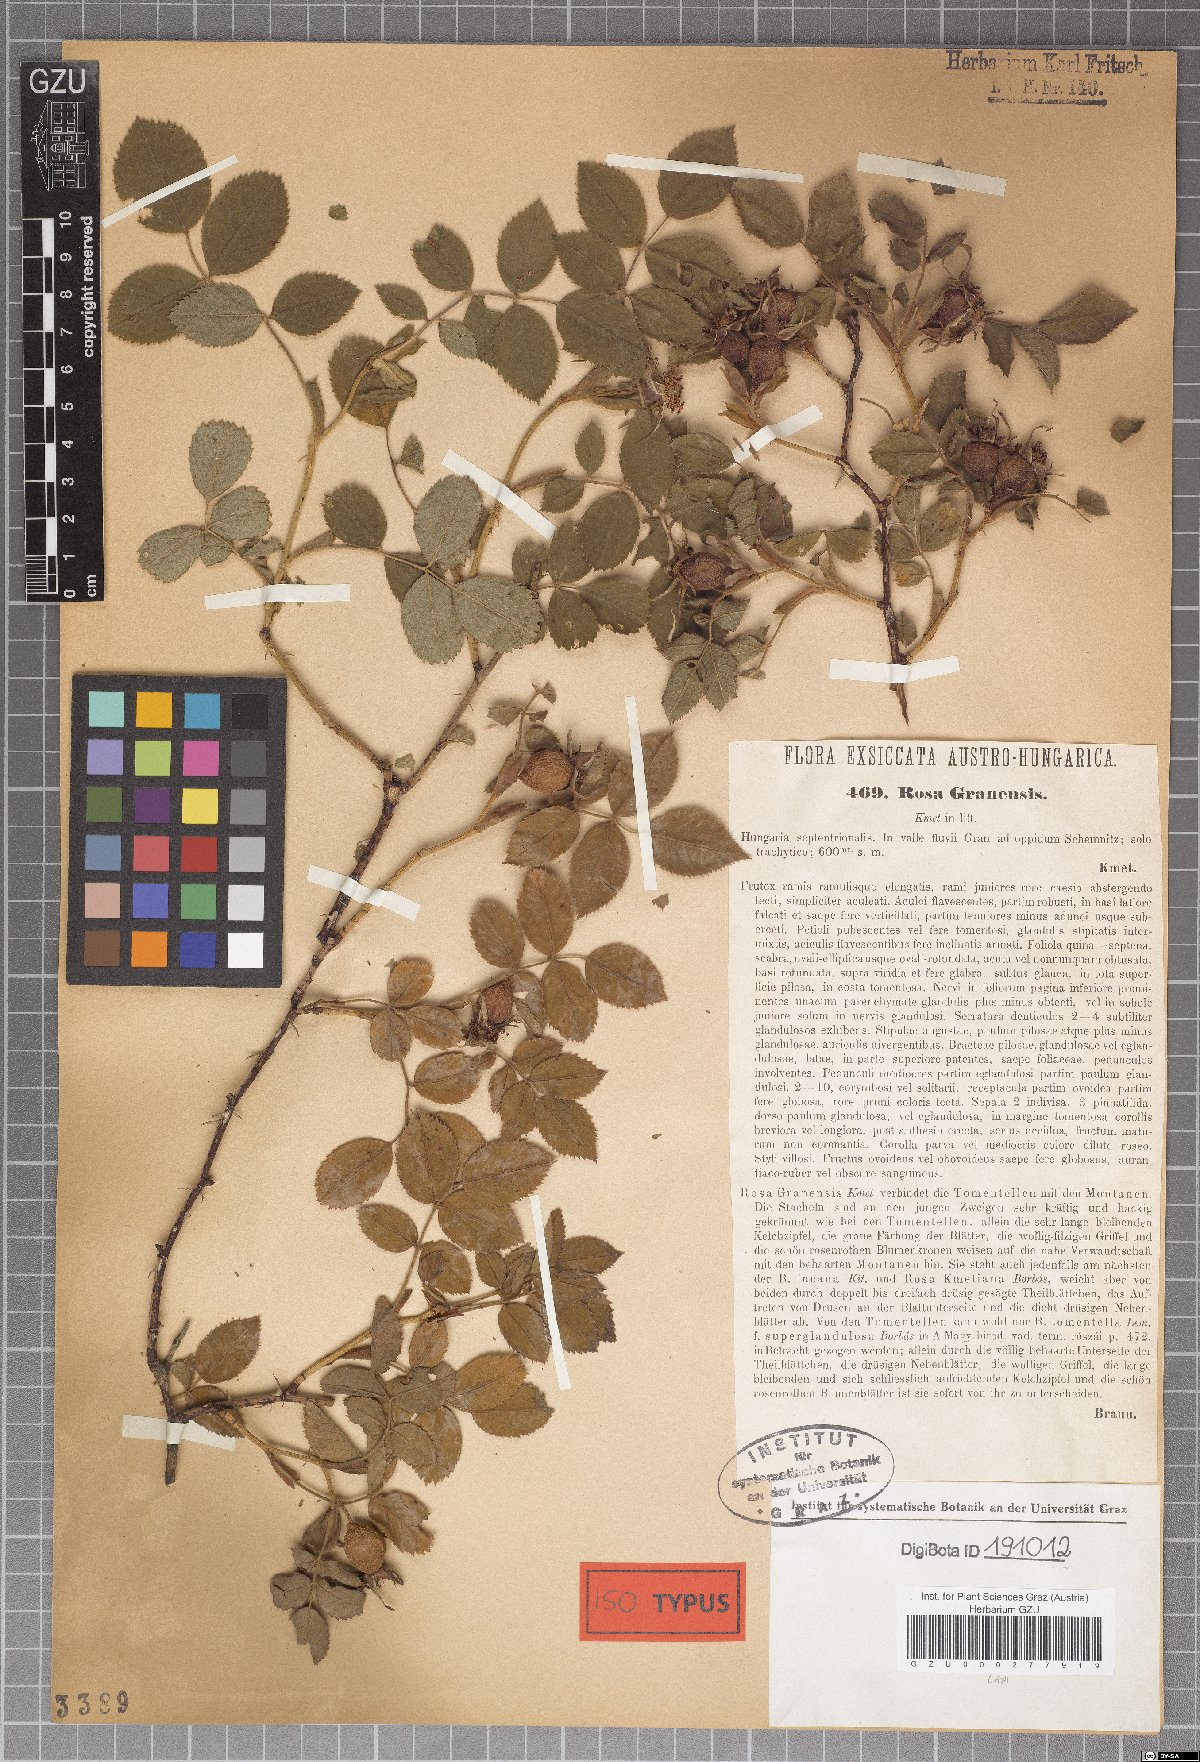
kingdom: Plantae
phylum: Tracheophyta
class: Magnoliopsida
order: Rosales
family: Rosaceae
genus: Rosa
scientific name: Rosa balsamica
